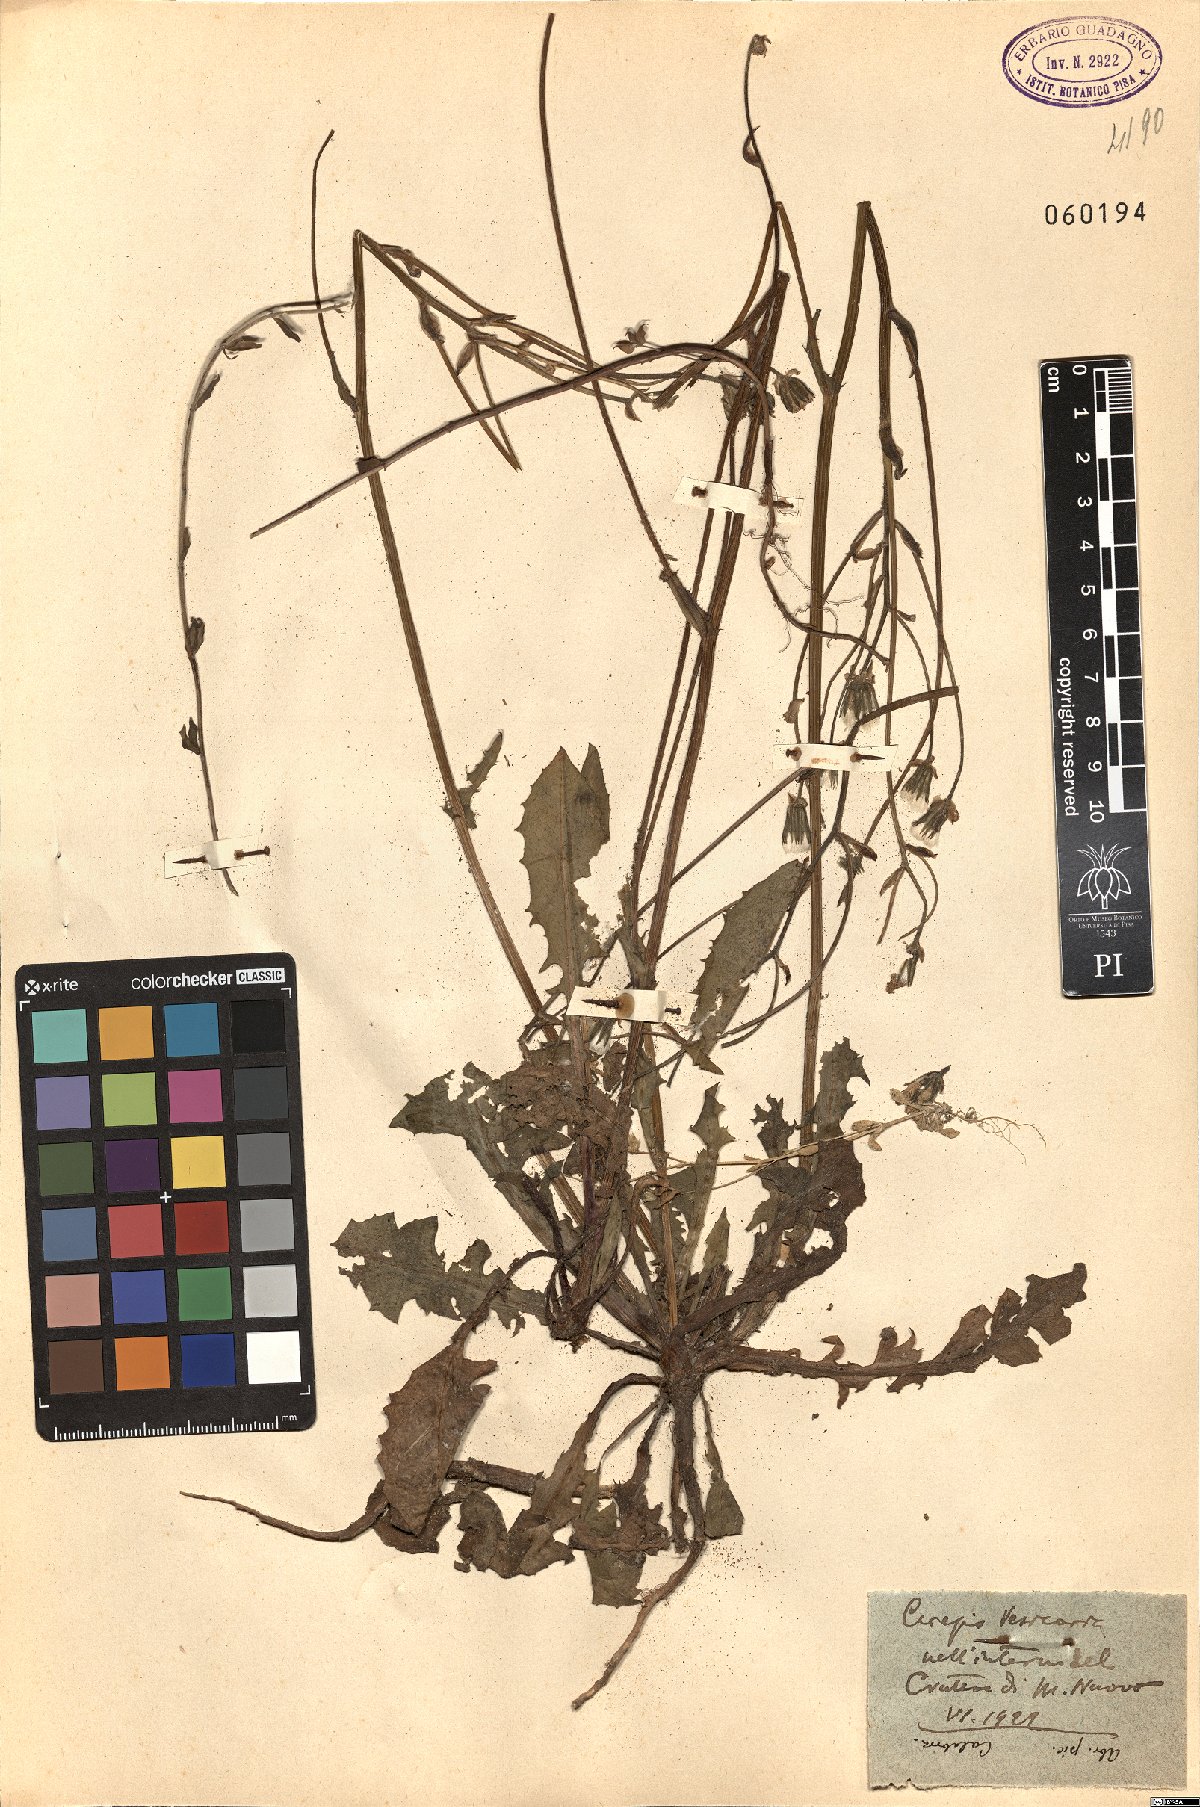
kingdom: Plantae
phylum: Tracheophyta
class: Magnoliopsida
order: Asterales
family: Asteraceae
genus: Crepis
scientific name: Crepis vesicaria
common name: Beaked hawksbeard
